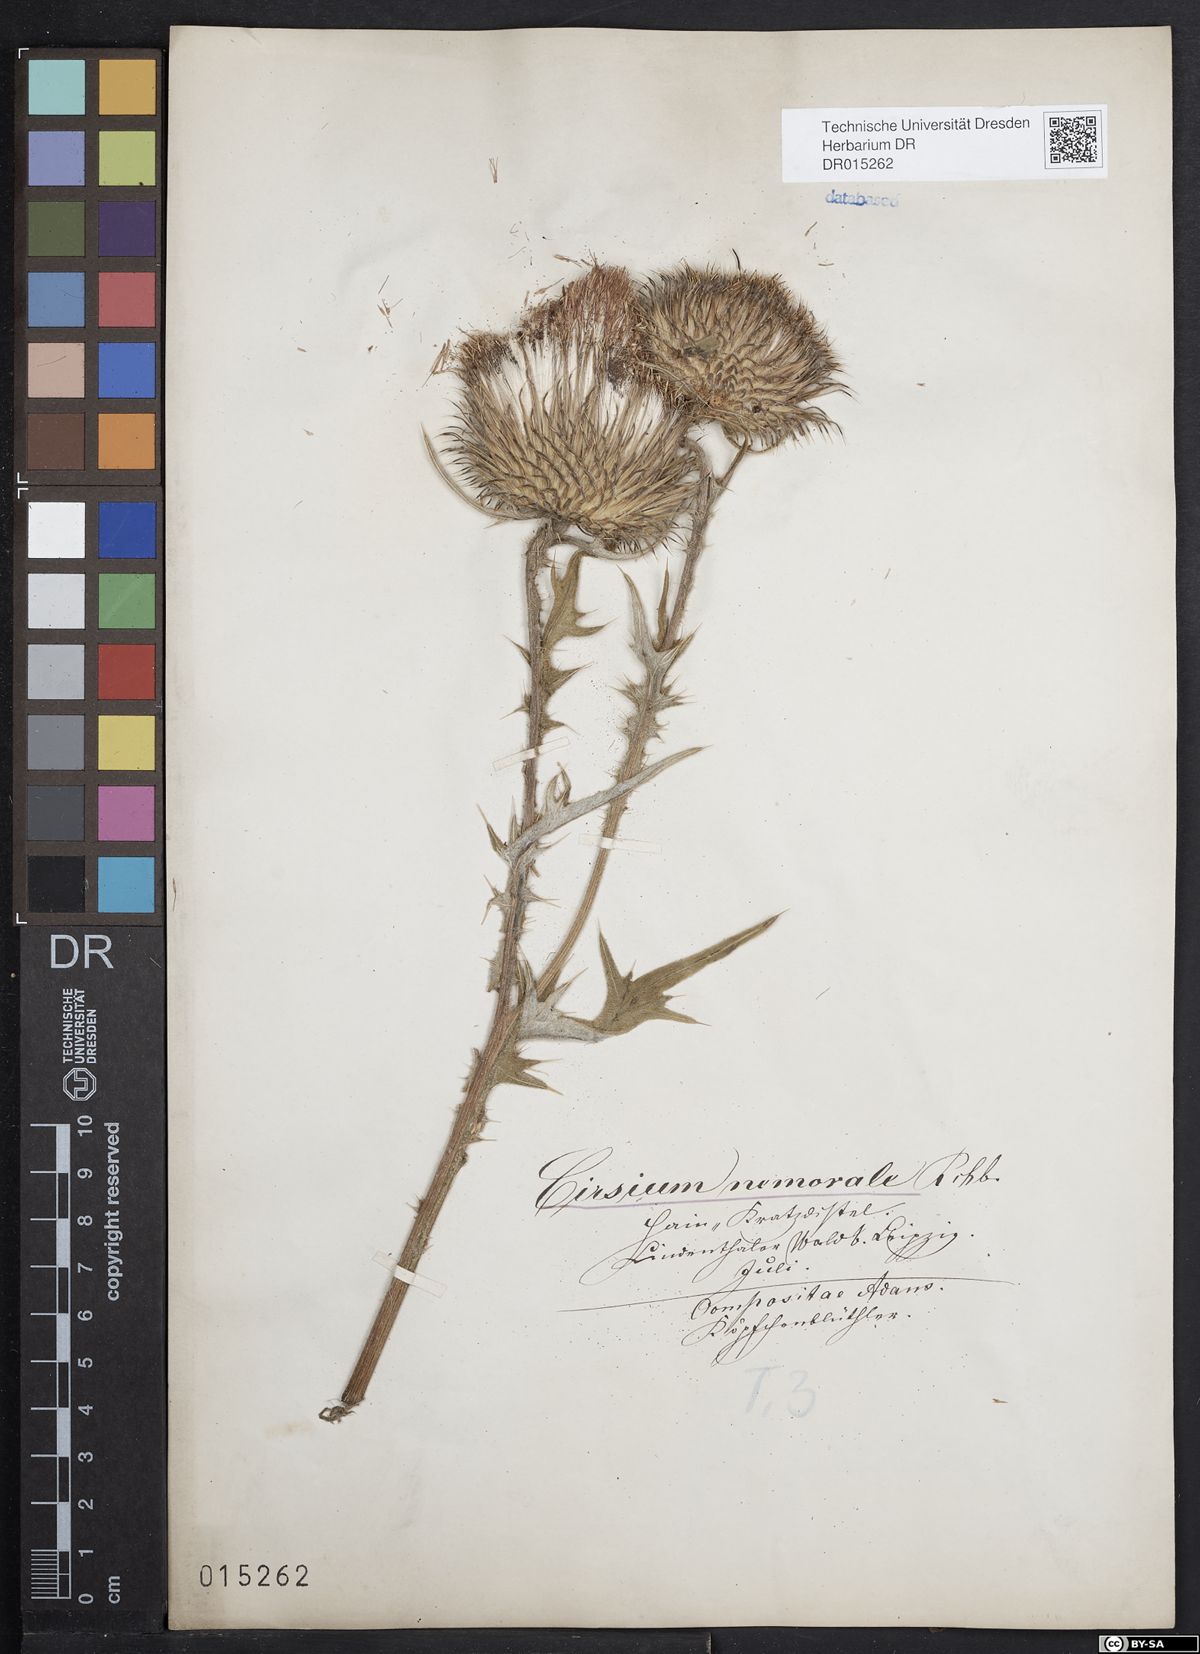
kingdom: Plantae
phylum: Tracheophyta
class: Magnoliopsida
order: Asterales
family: Asteraceae
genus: Cirsium
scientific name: Cirsium vulgare
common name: Bull thistle
